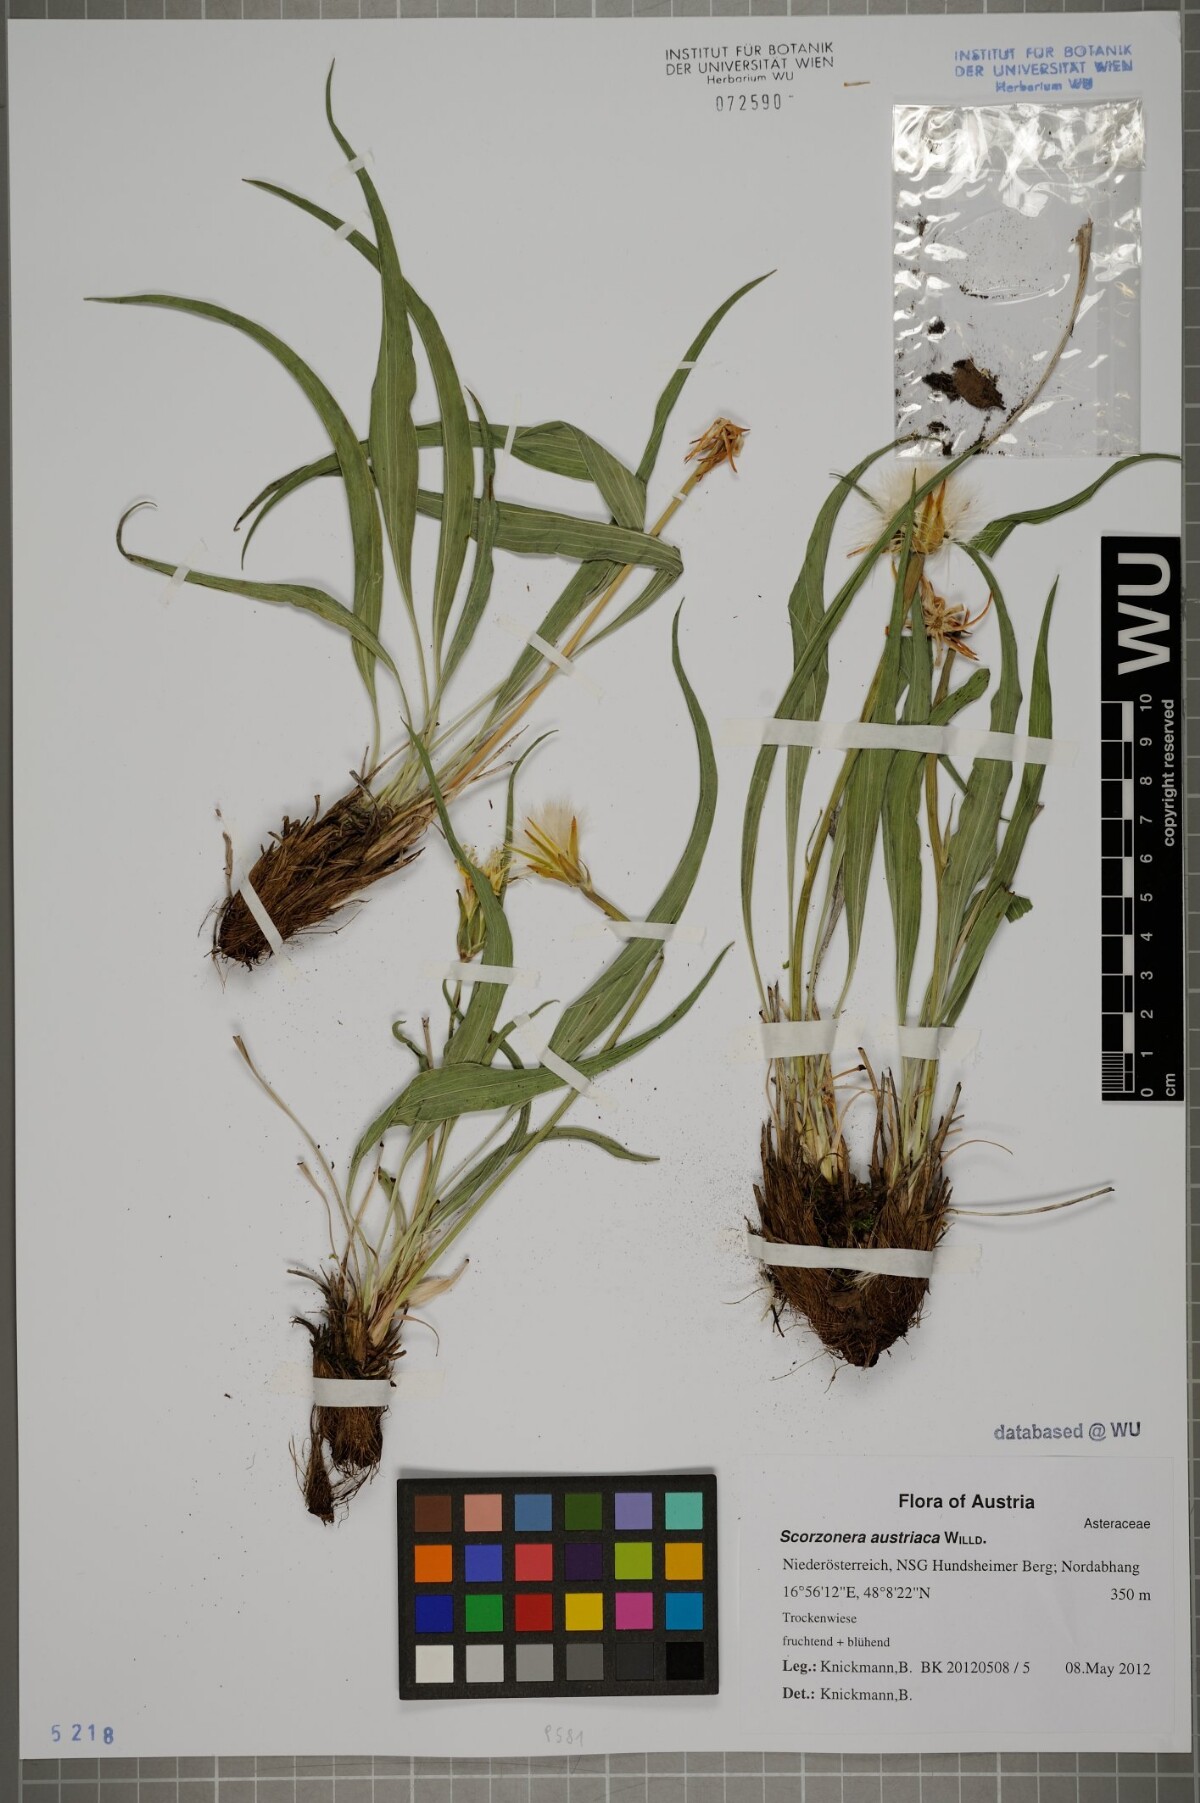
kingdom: Plantae
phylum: Tracheophyta
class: Magnoliopsida
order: Asterales
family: Asteraceae
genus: Takhtajaniantha
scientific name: Takhtajaniantha austriaca
